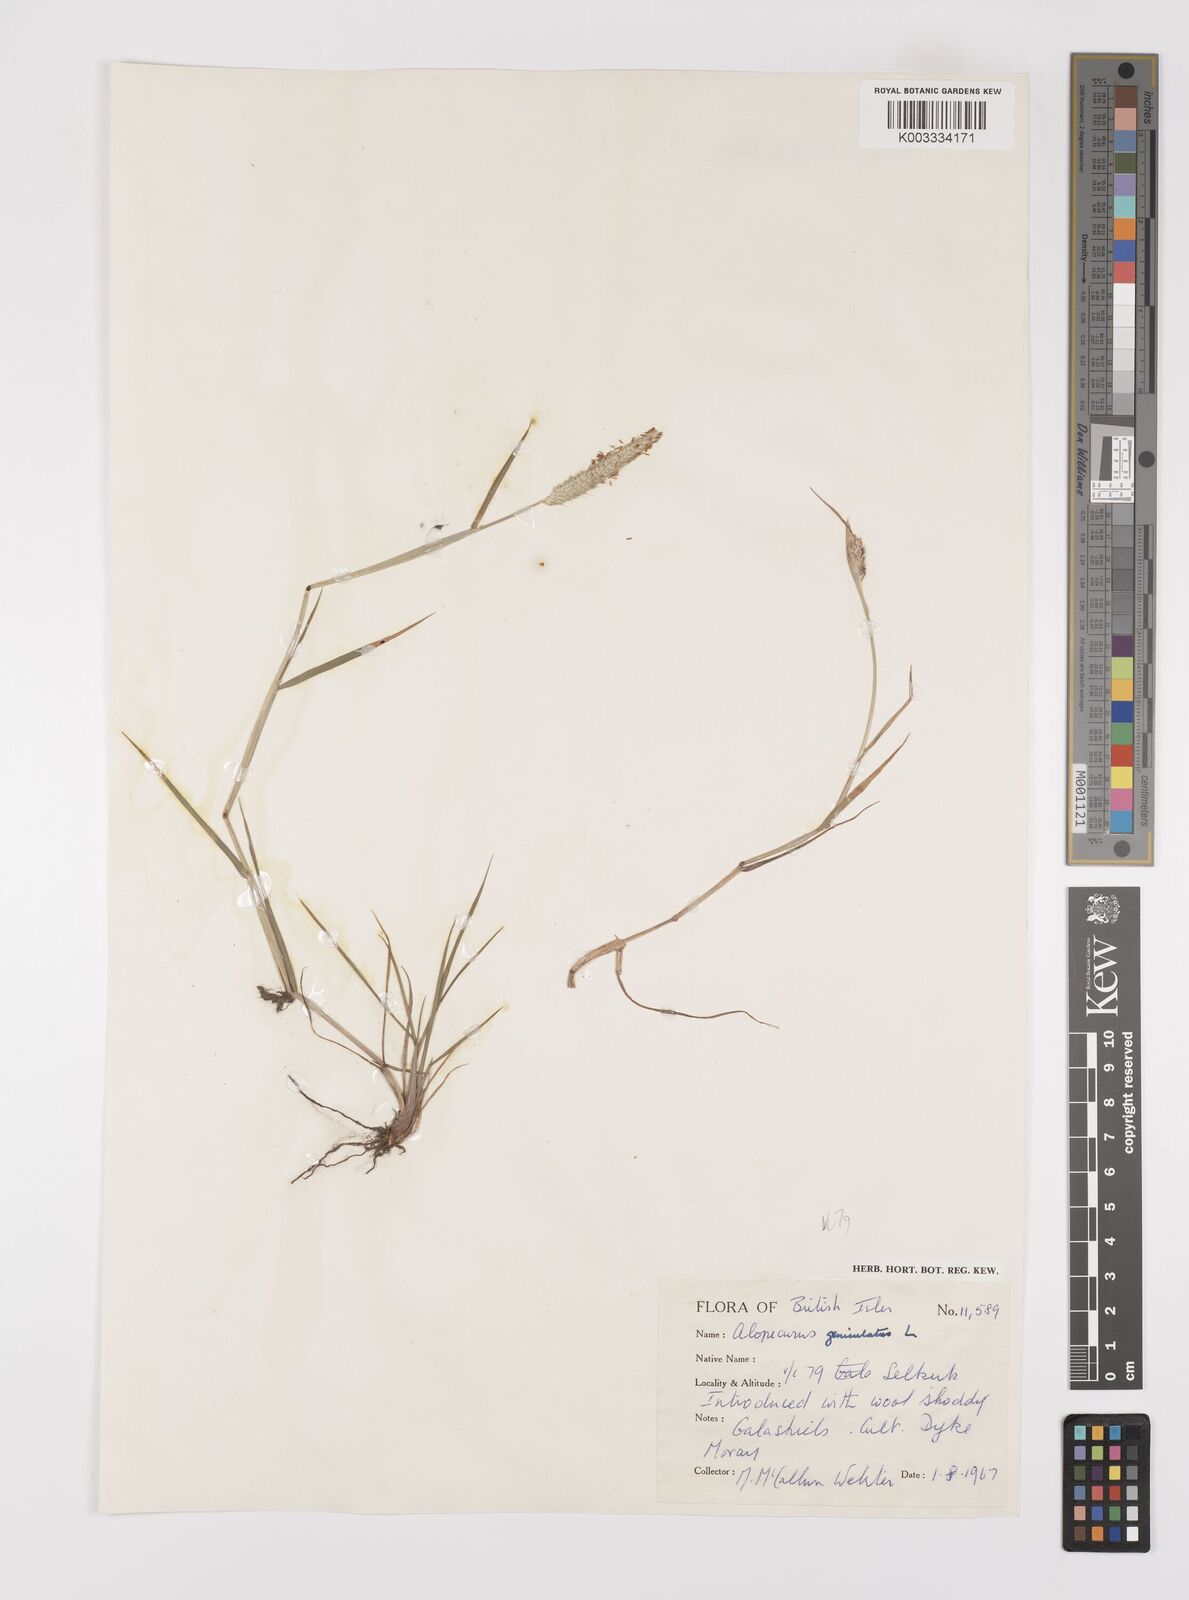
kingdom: Plantae
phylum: Tracheophyta
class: Liliopsida
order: Poales
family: Poaceae
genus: Alopecurus
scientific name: Alopecurus geniculatus
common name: Water foxtail
